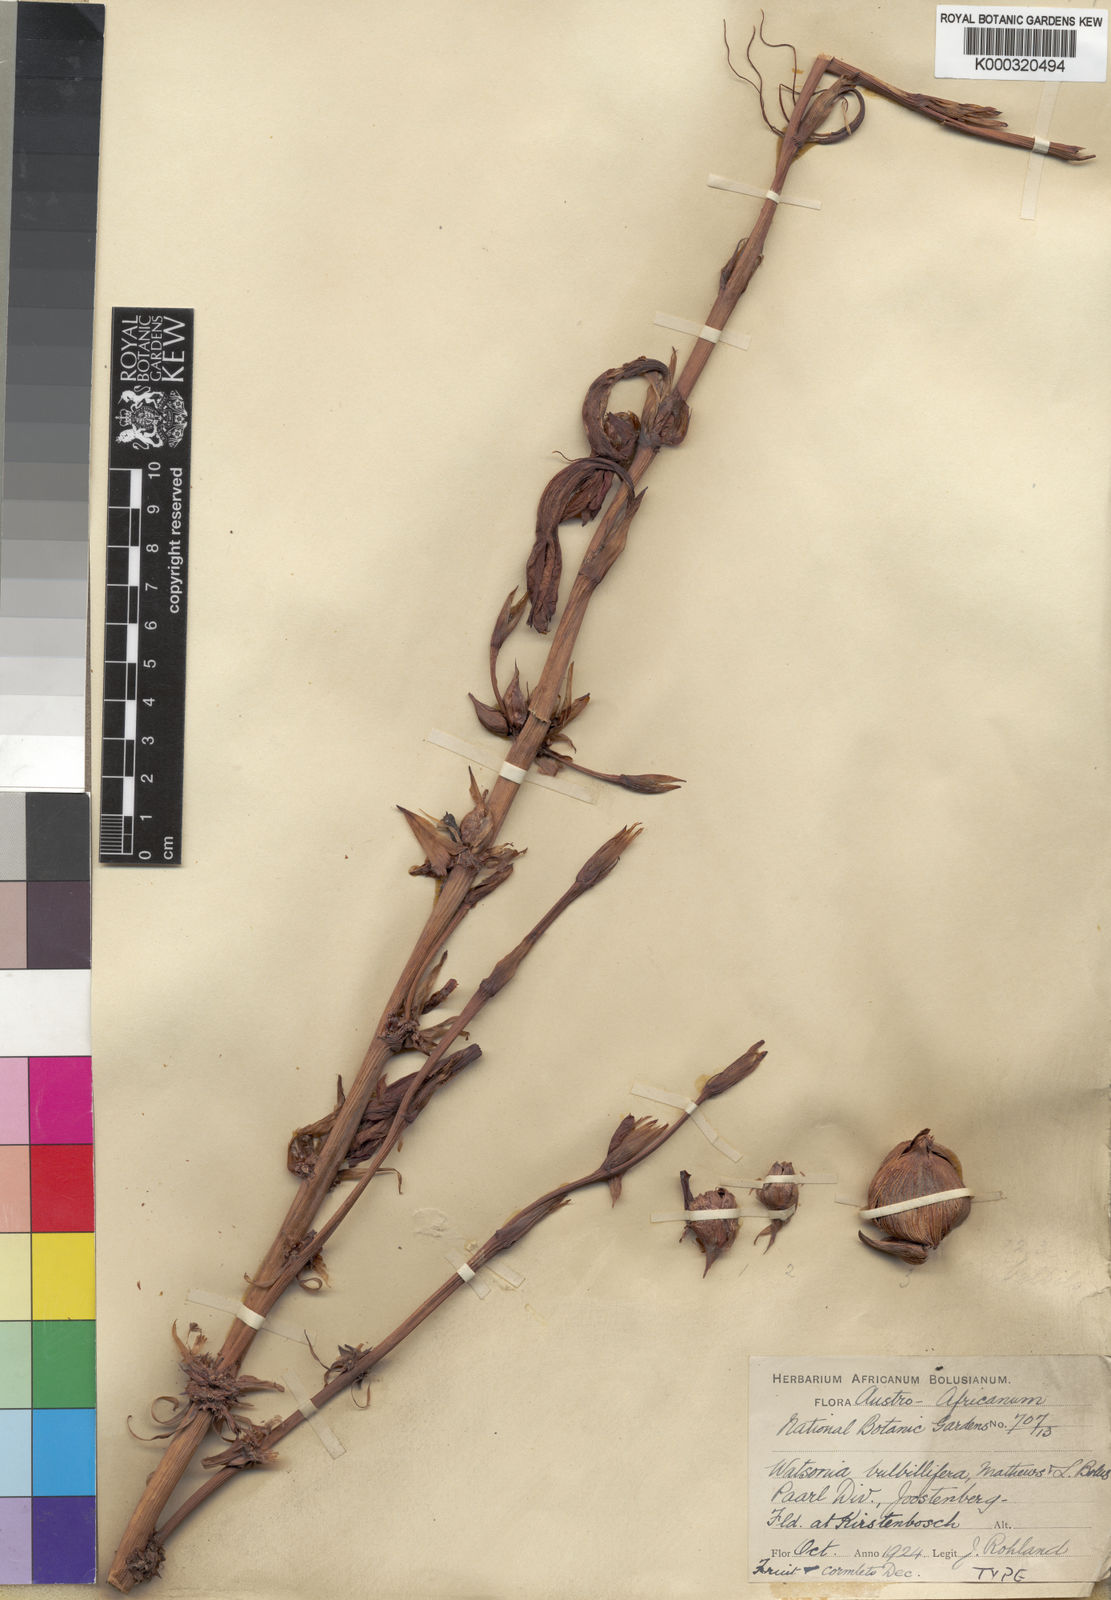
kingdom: Plantae
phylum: Tracheophyta
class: Liliopsida
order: Asparagales
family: Iridaceae
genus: Watsonia
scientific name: Watsonia meriana
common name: Bulbil bugle-lily
